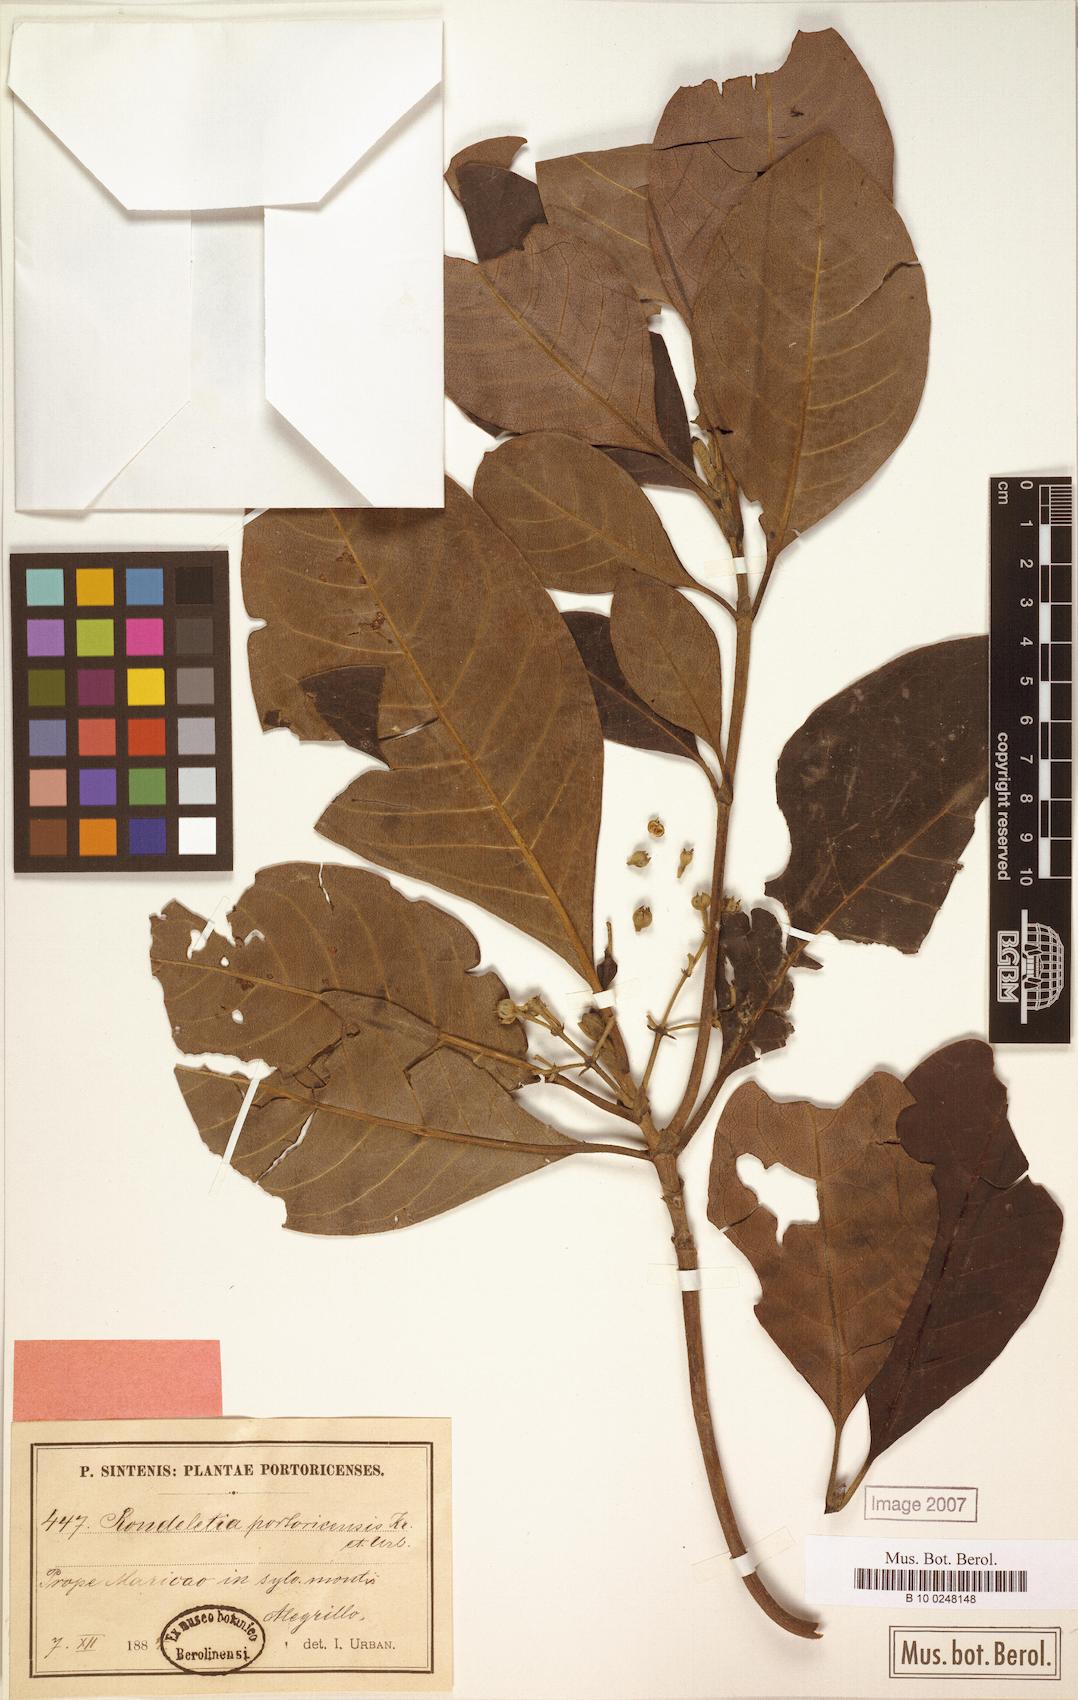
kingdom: Plantae
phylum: Tracheophyta
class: Magnoliopsida
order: Gentianales
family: Rubiaceae
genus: Rondeletia
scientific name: Rondeletia portoricensis
